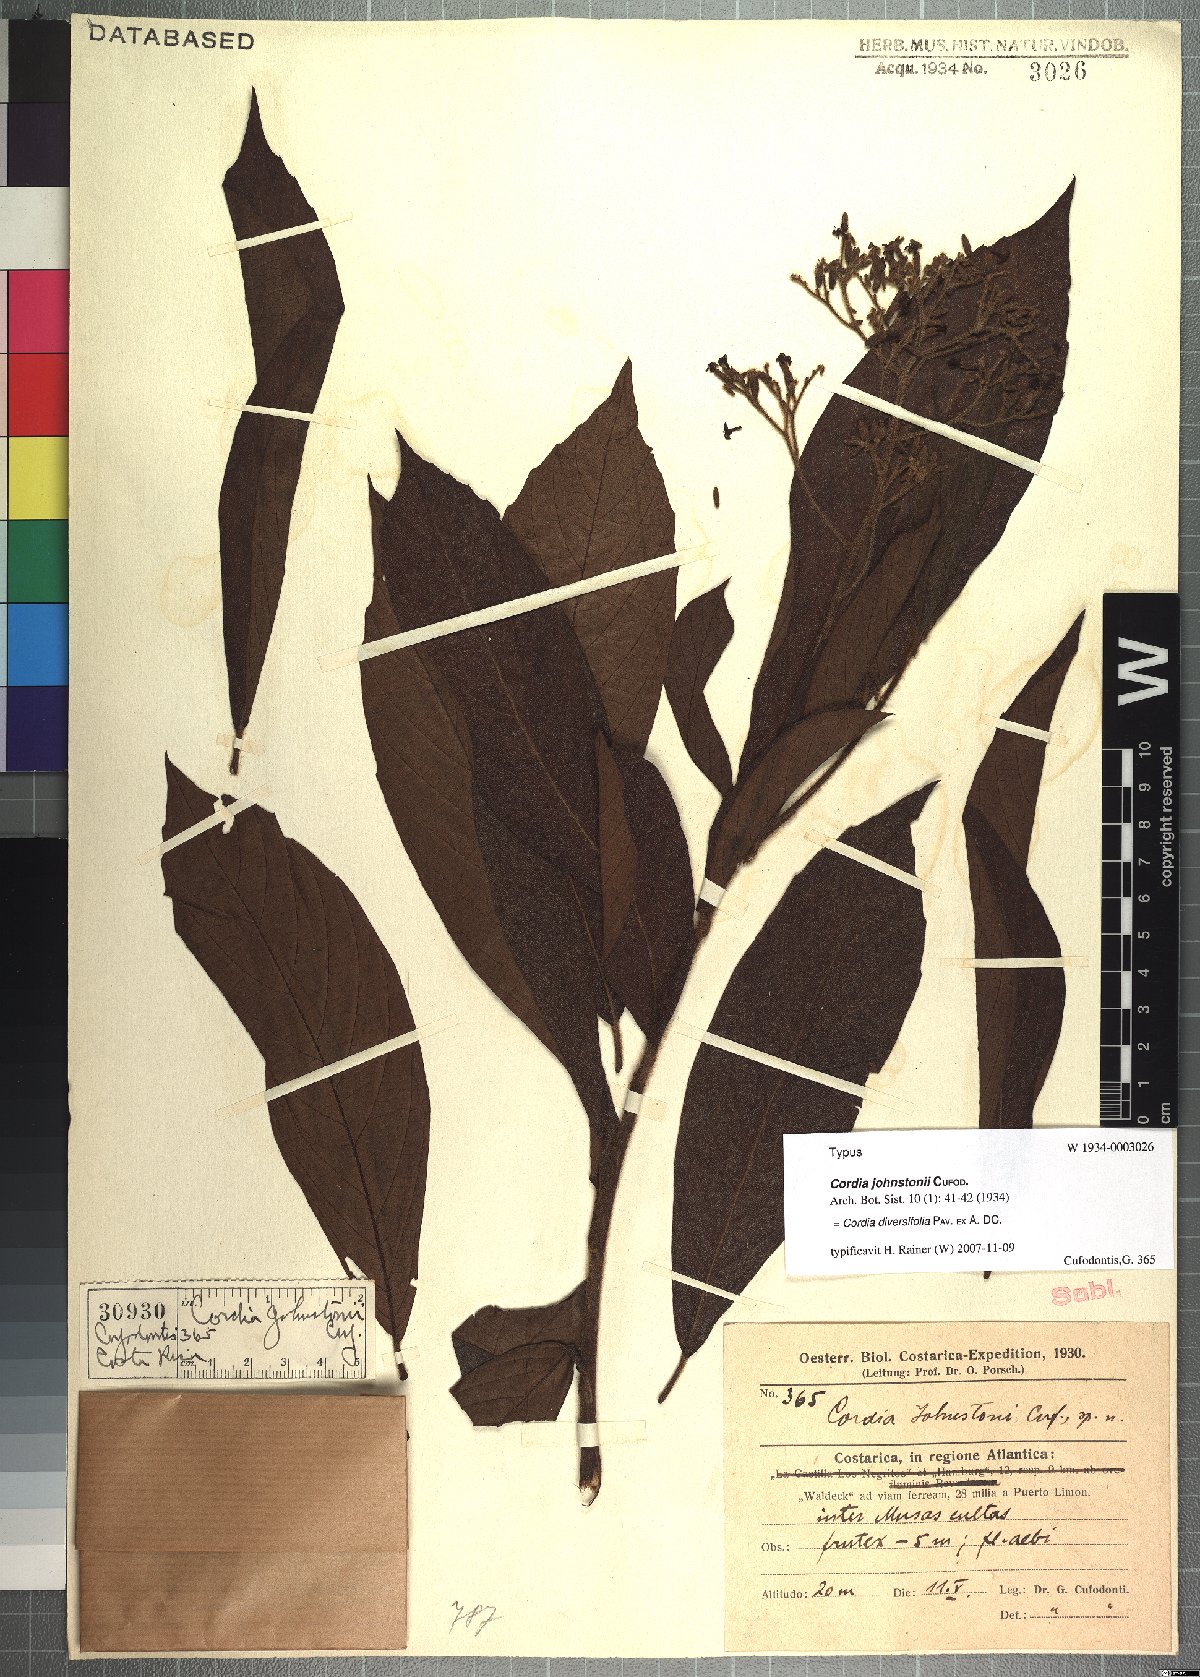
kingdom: Plantae
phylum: Tracheophyta
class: Magnoliopsida
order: Boraginales
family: Cordiaceae
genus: Cordia
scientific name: Cordia diversifolia
